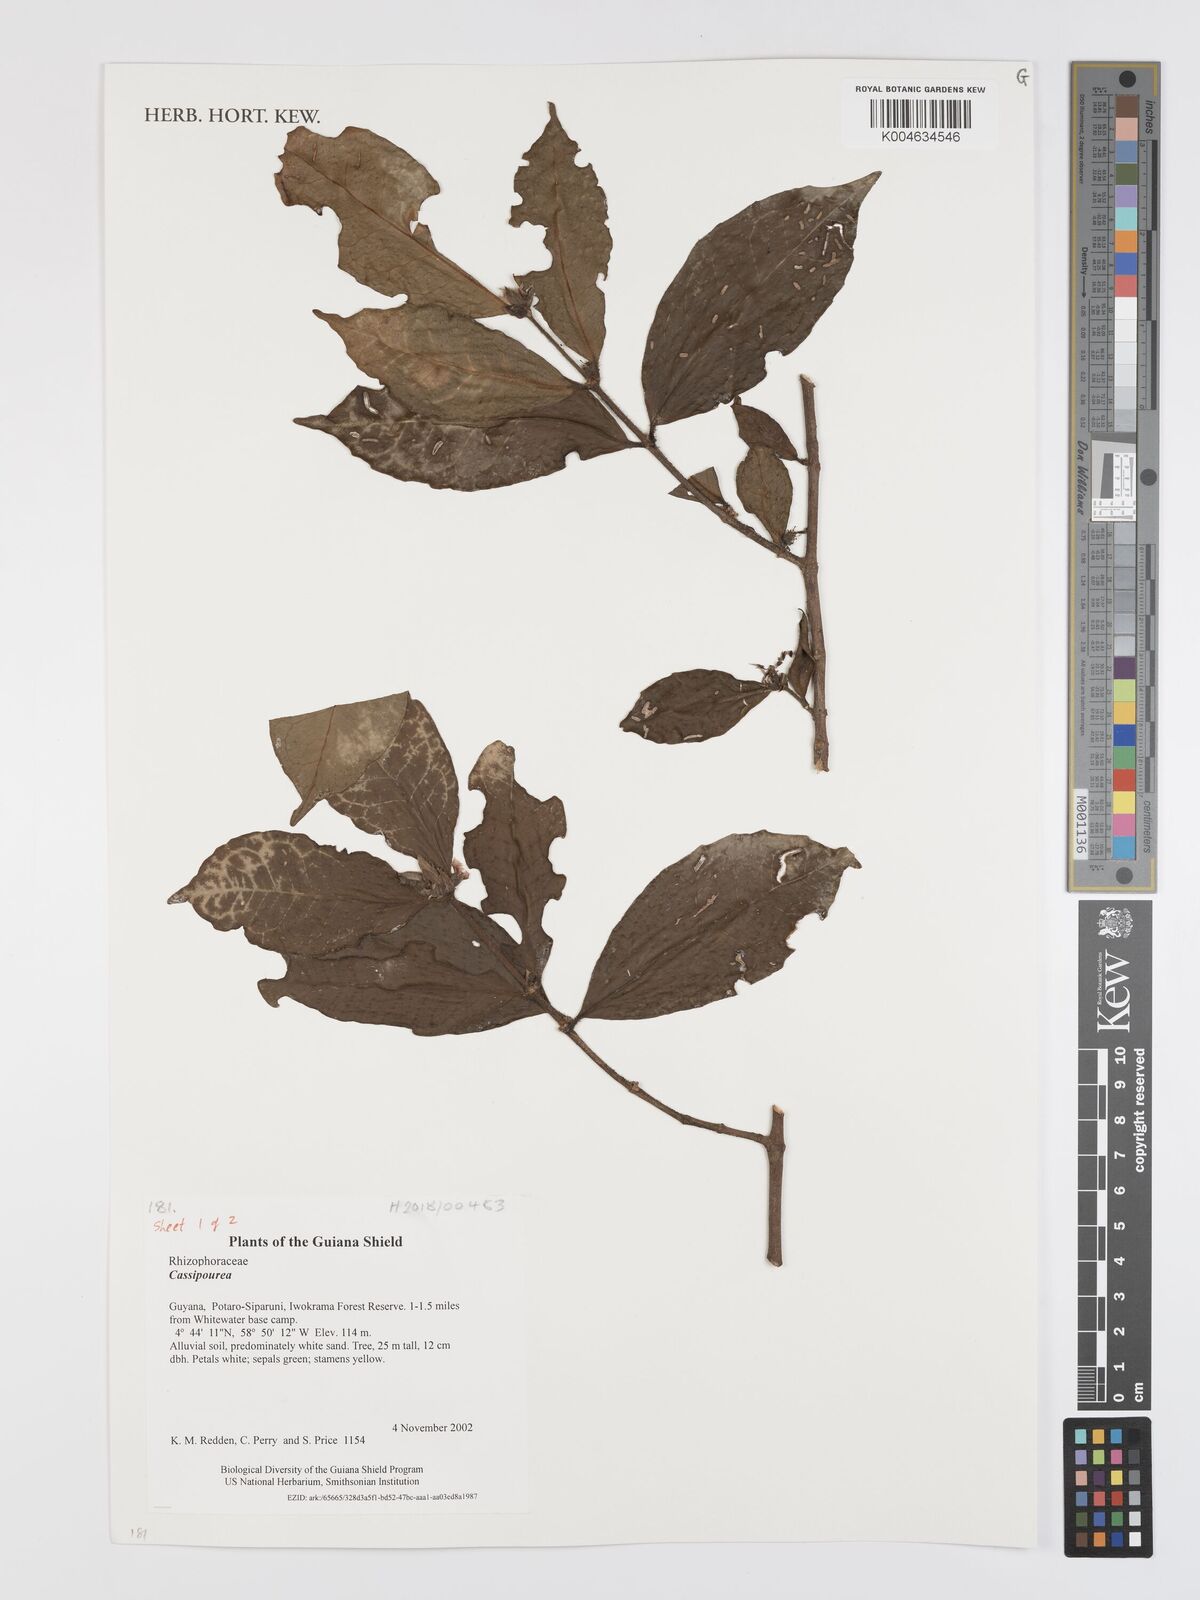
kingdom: Plantae
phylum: Tracheophyta
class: Magnoliopsida
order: Malpighiales
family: Rhizophoraceae
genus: Cassipourea
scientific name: Cassipourea
